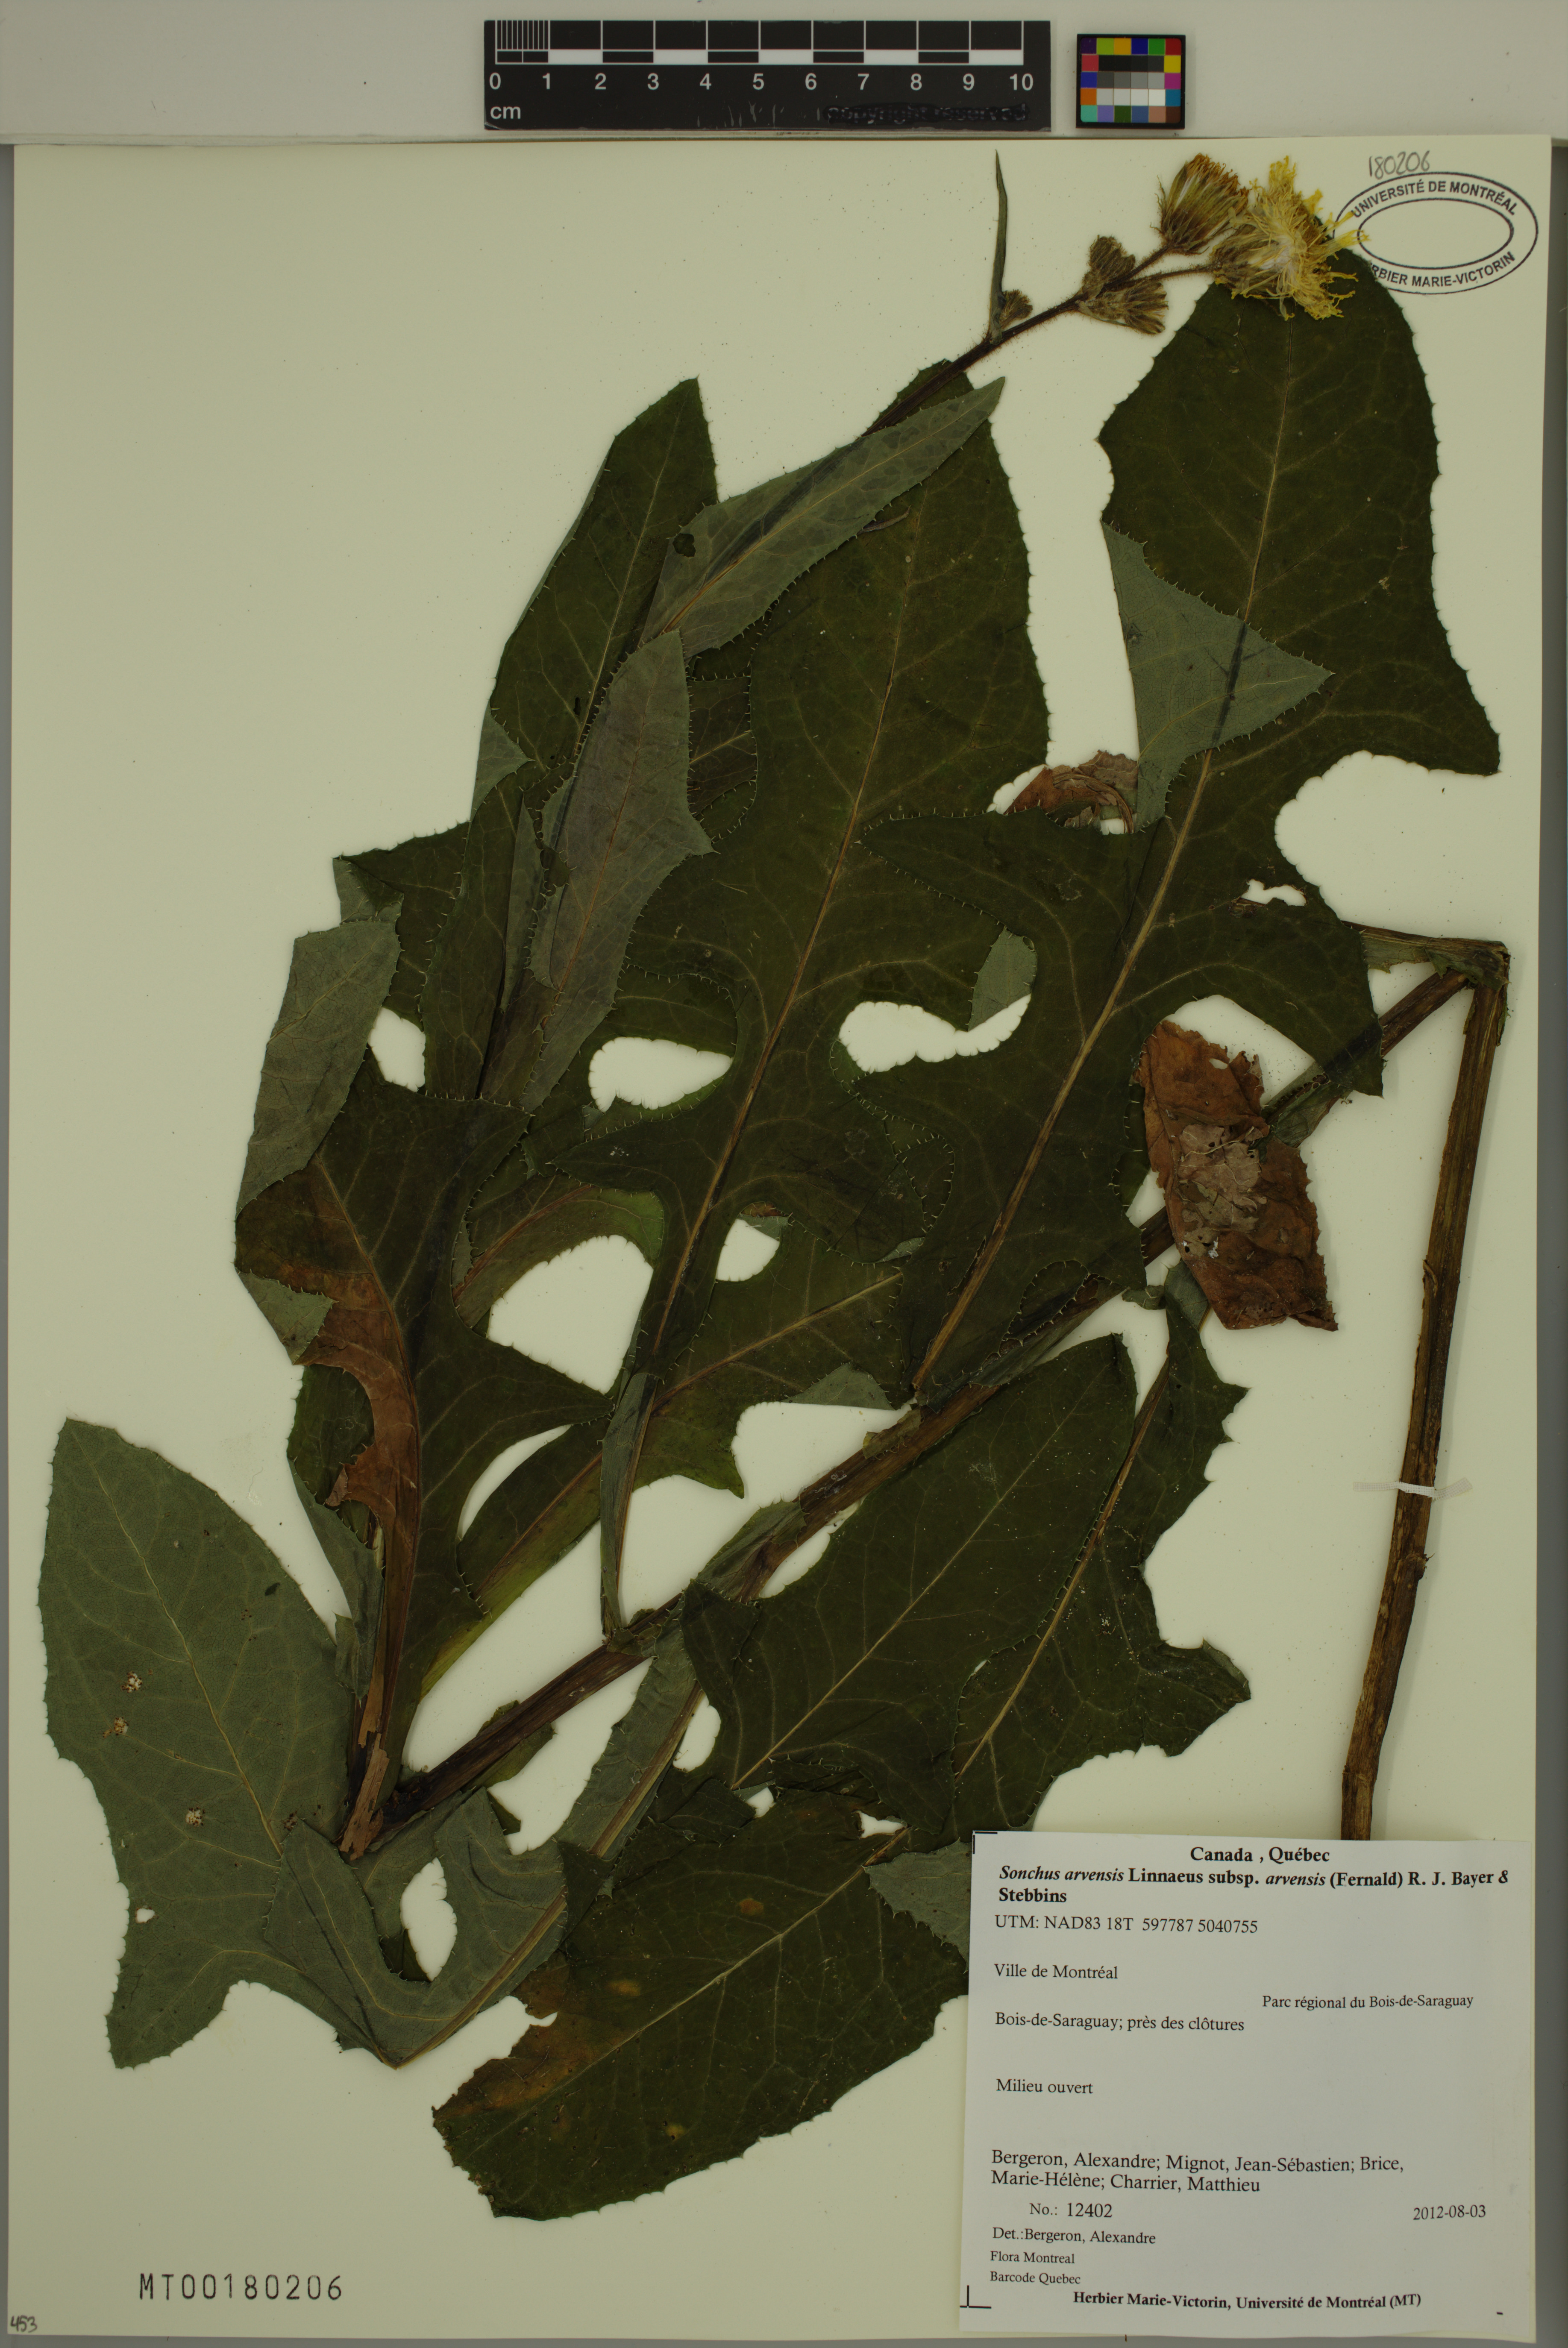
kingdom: Plantae
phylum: Tracheophyta
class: Magnoliopsida
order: Asterales
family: Asteraceae
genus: Sonchus
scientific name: Sonchus arvensis
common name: Perennial sow-thistle
